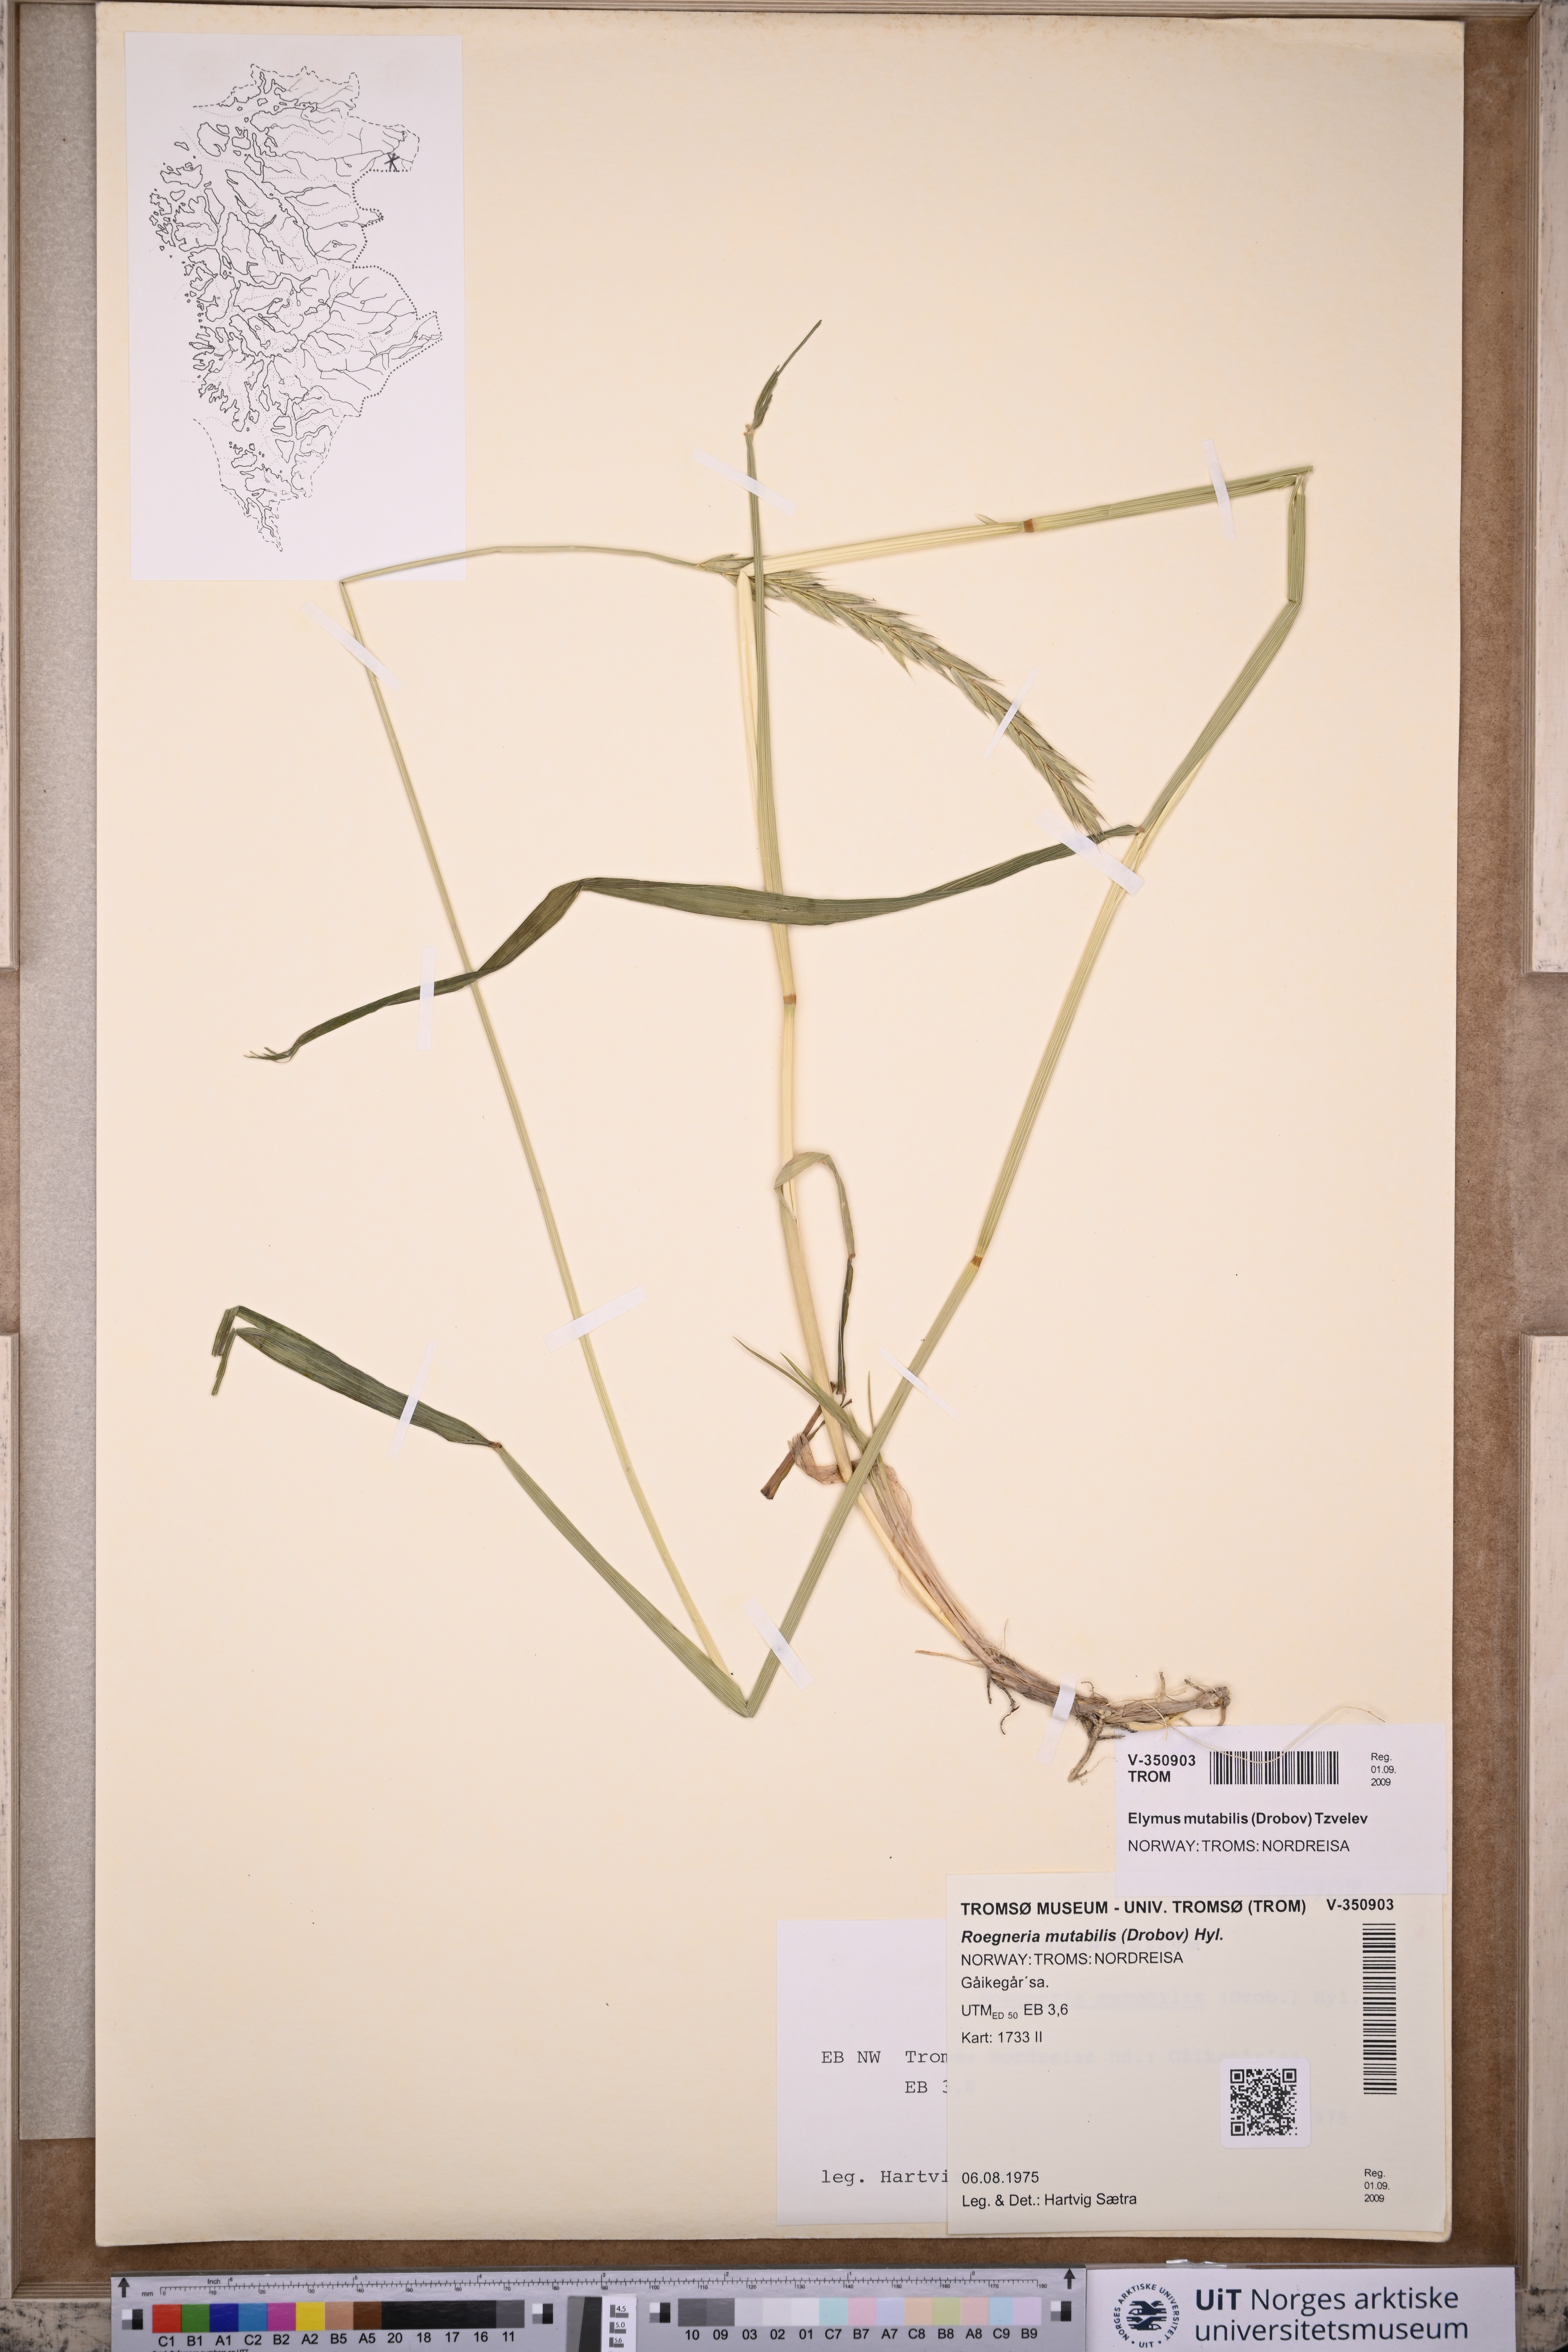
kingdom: Plantae
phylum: Tracheophyta
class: Liliopsida
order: Poales
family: Poaceae
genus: Elymus
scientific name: Elymus mutabilis
